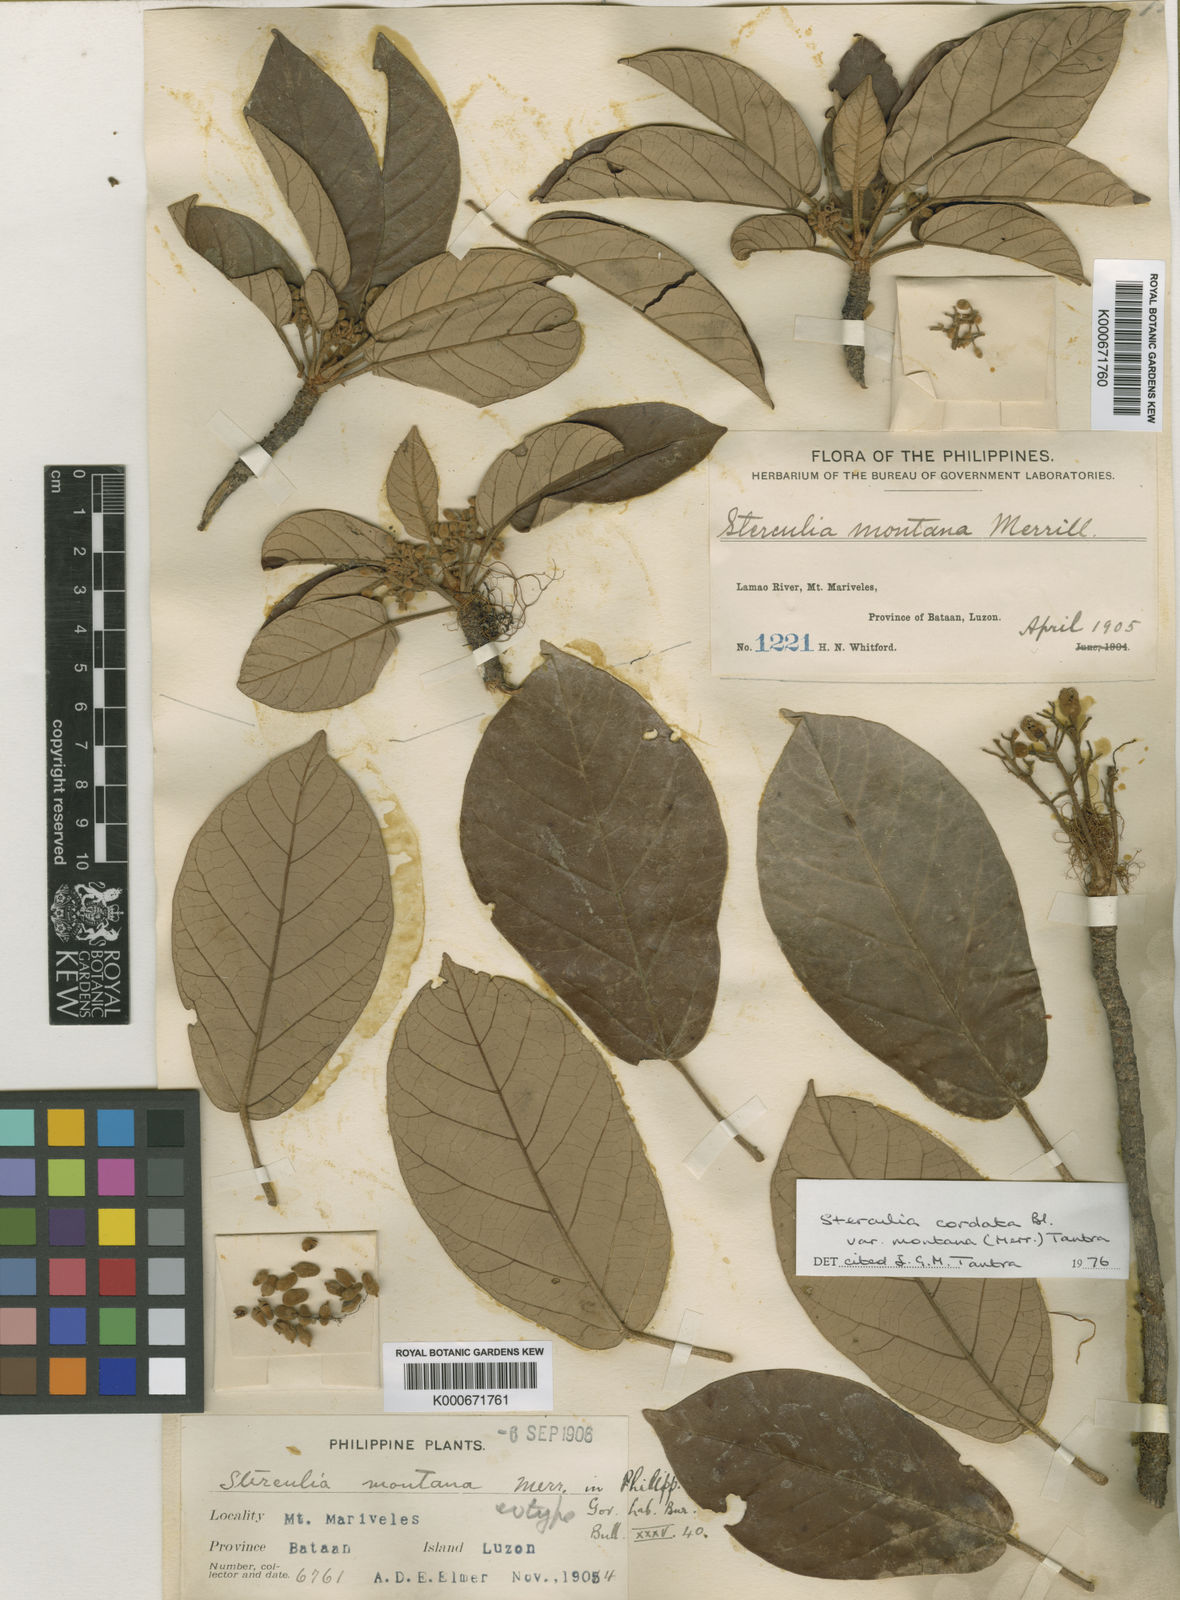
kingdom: Plantae
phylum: Tracheophyta
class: Magnoliopsida
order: Malvales
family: Malvaceae
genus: Sterculia
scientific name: Sterculia cordata
